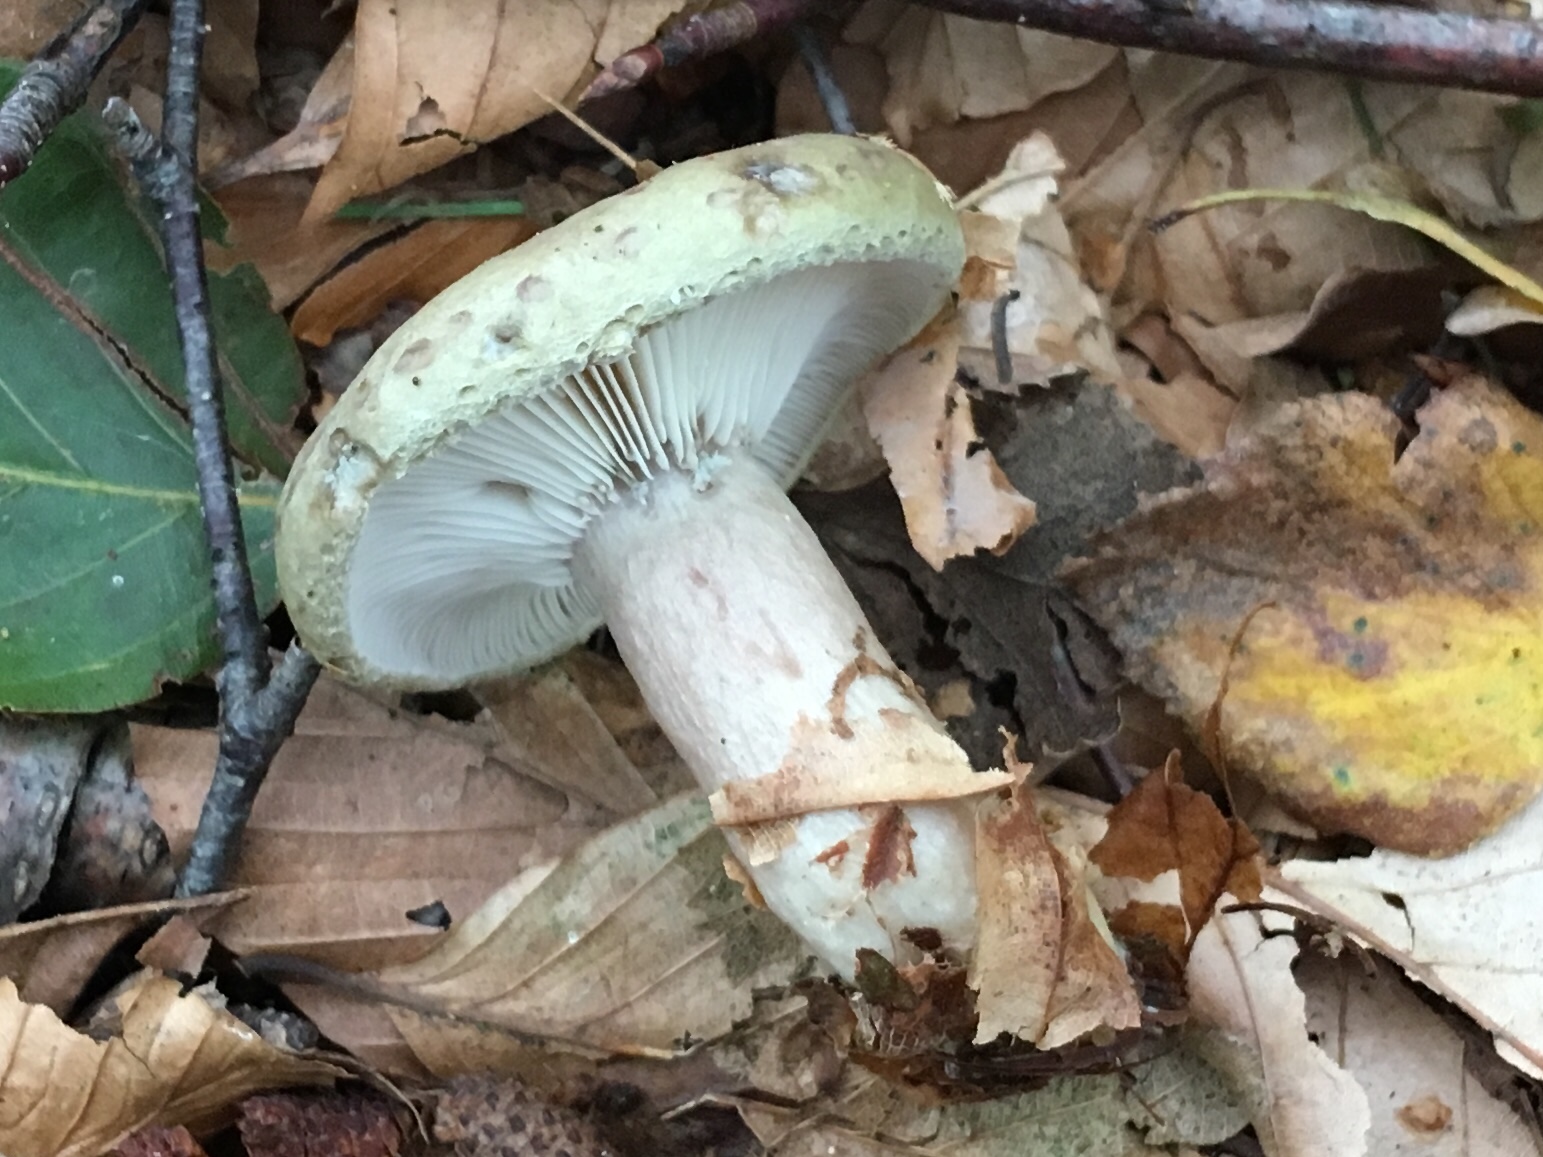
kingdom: Fungi
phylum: Basidiomycota
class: Agaricomycetes
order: Russulales
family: Russulaceae
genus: Lactarius
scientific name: Lactarius necator
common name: manddraber-mælkehat
